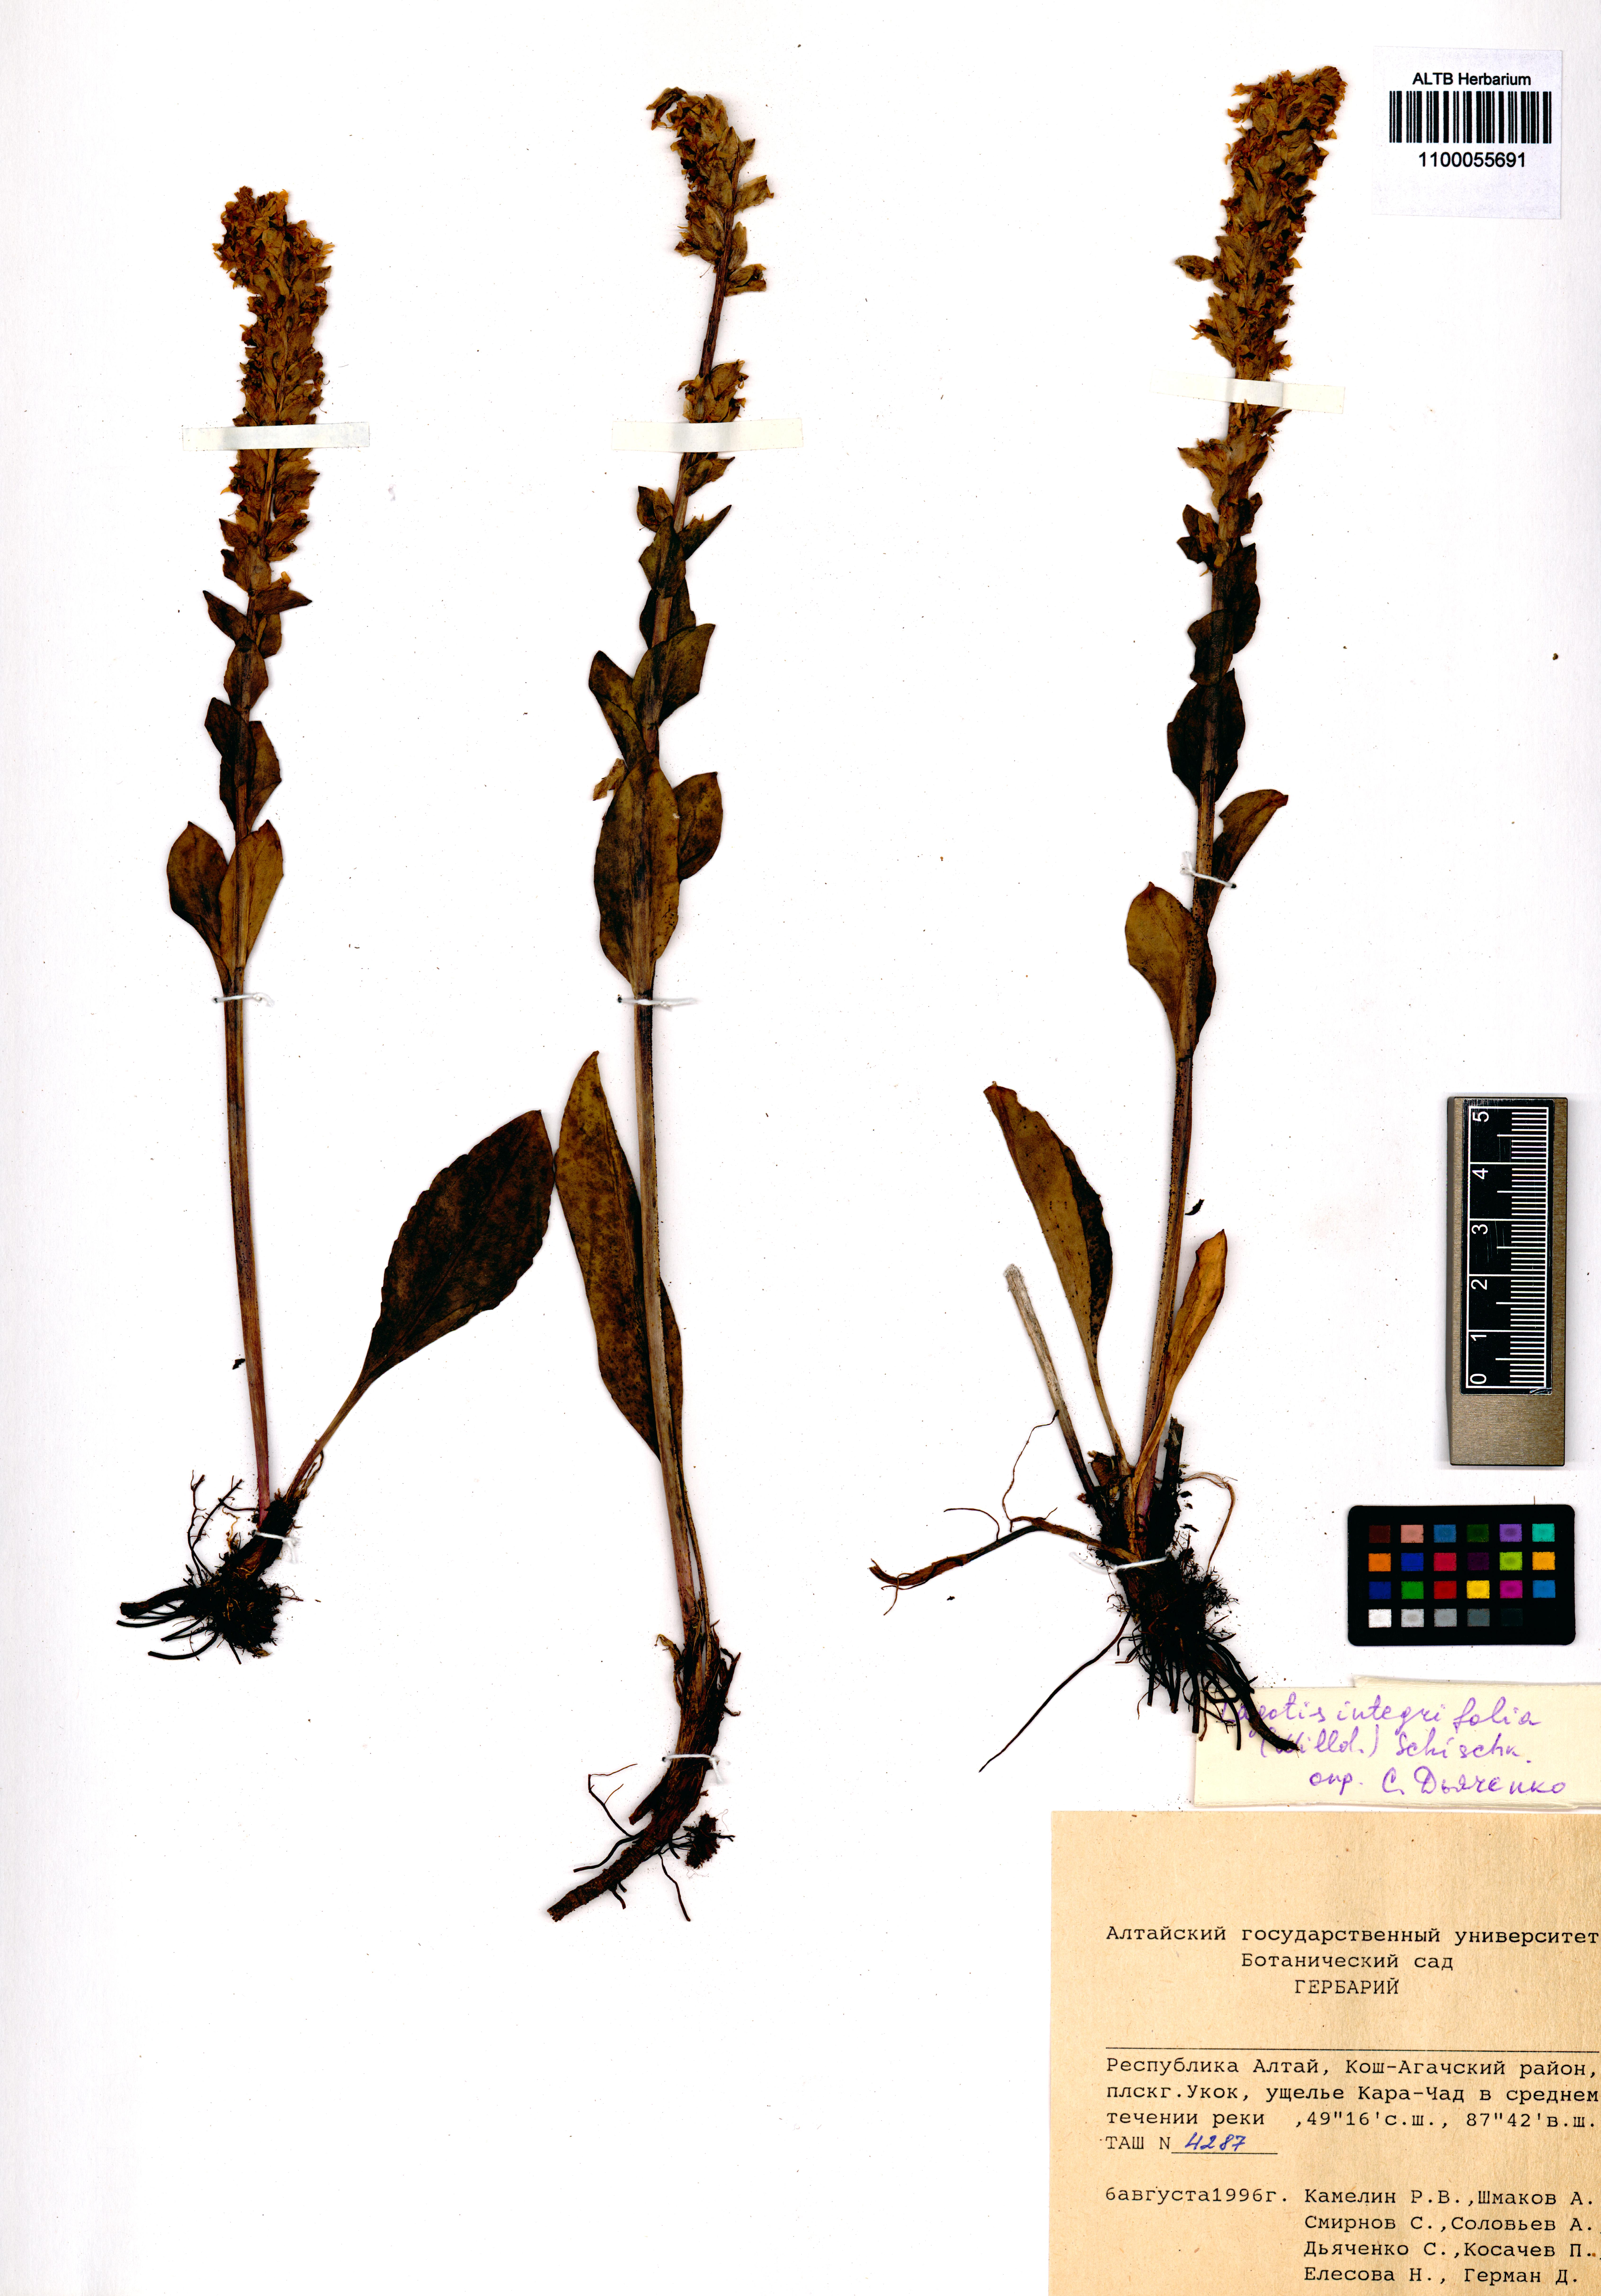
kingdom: Plantae
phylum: Tracheophyta
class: Magnoliopsida
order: Lamiales
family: Plantaginaceae
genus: Lagotis
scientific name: Lagotis integrifolia
